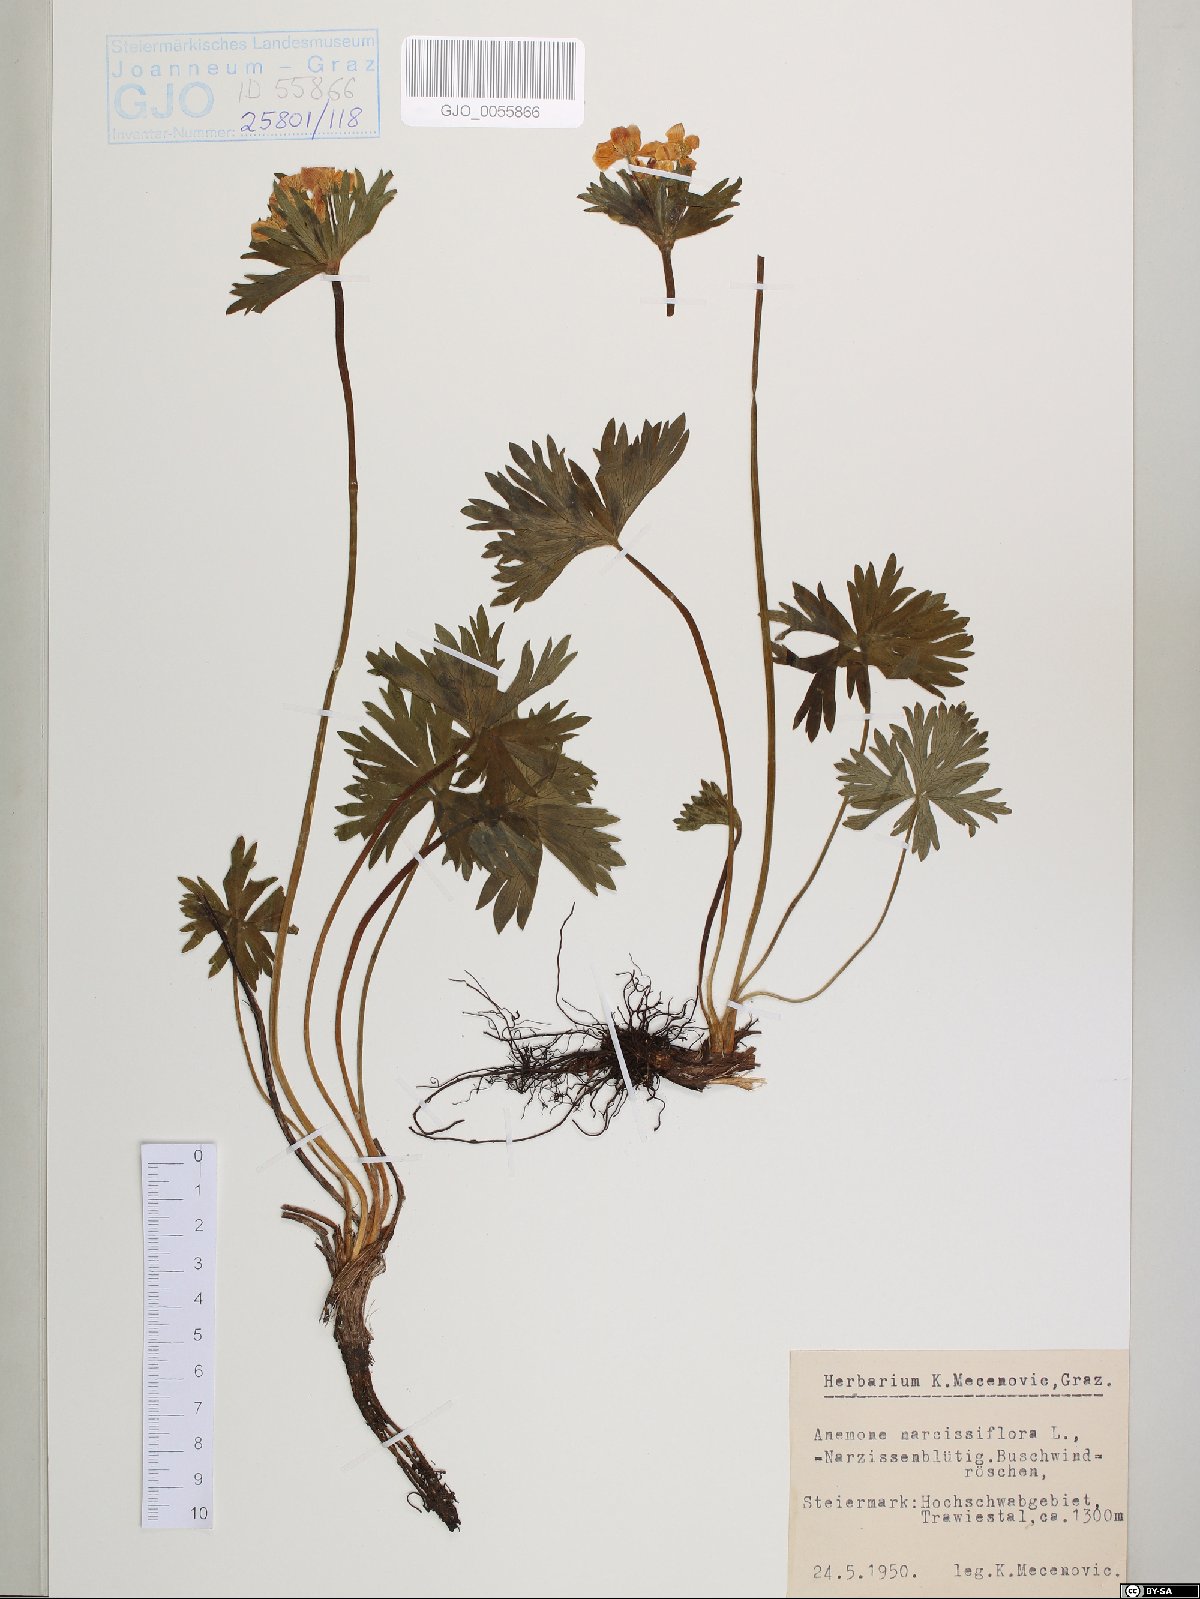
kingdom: Plantae
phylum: Tracheophyta
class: Magnoliopsida
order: Ranunculales
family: Ranunculaceae
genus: Anemonastrum
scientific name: Anemonastrum narcissiflorum
